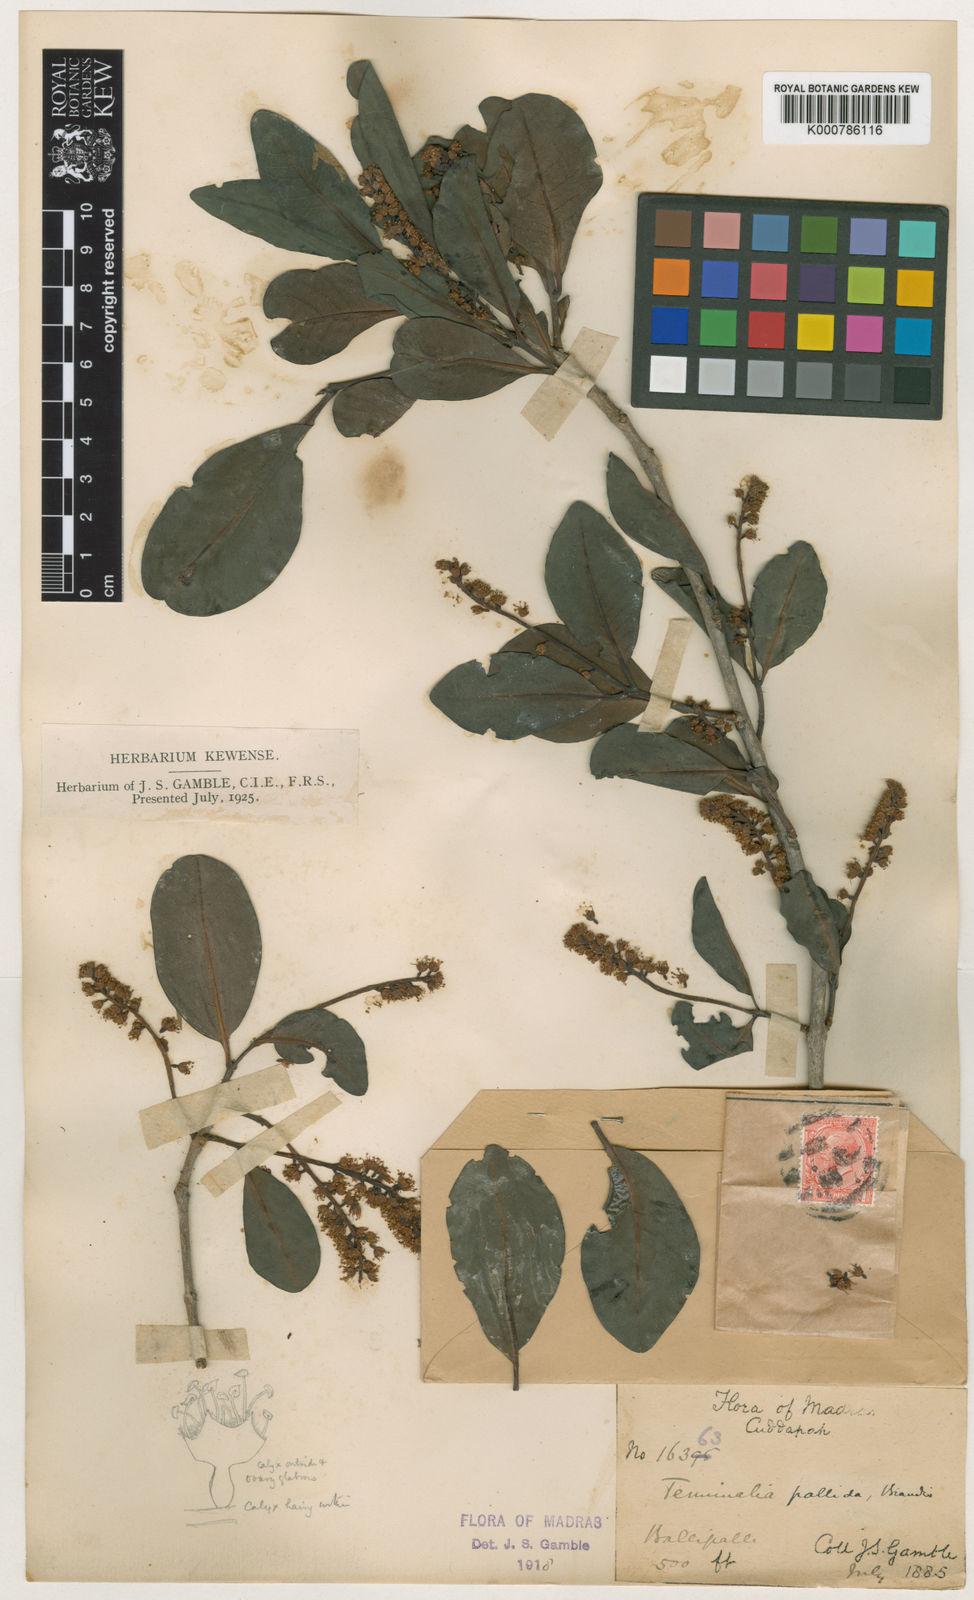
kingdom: Plantae
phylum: Tracheophyta
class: Magnoliopsida
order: Myrtales
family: Combretaceae
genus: Terminalia
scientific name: Terminalia pallida
